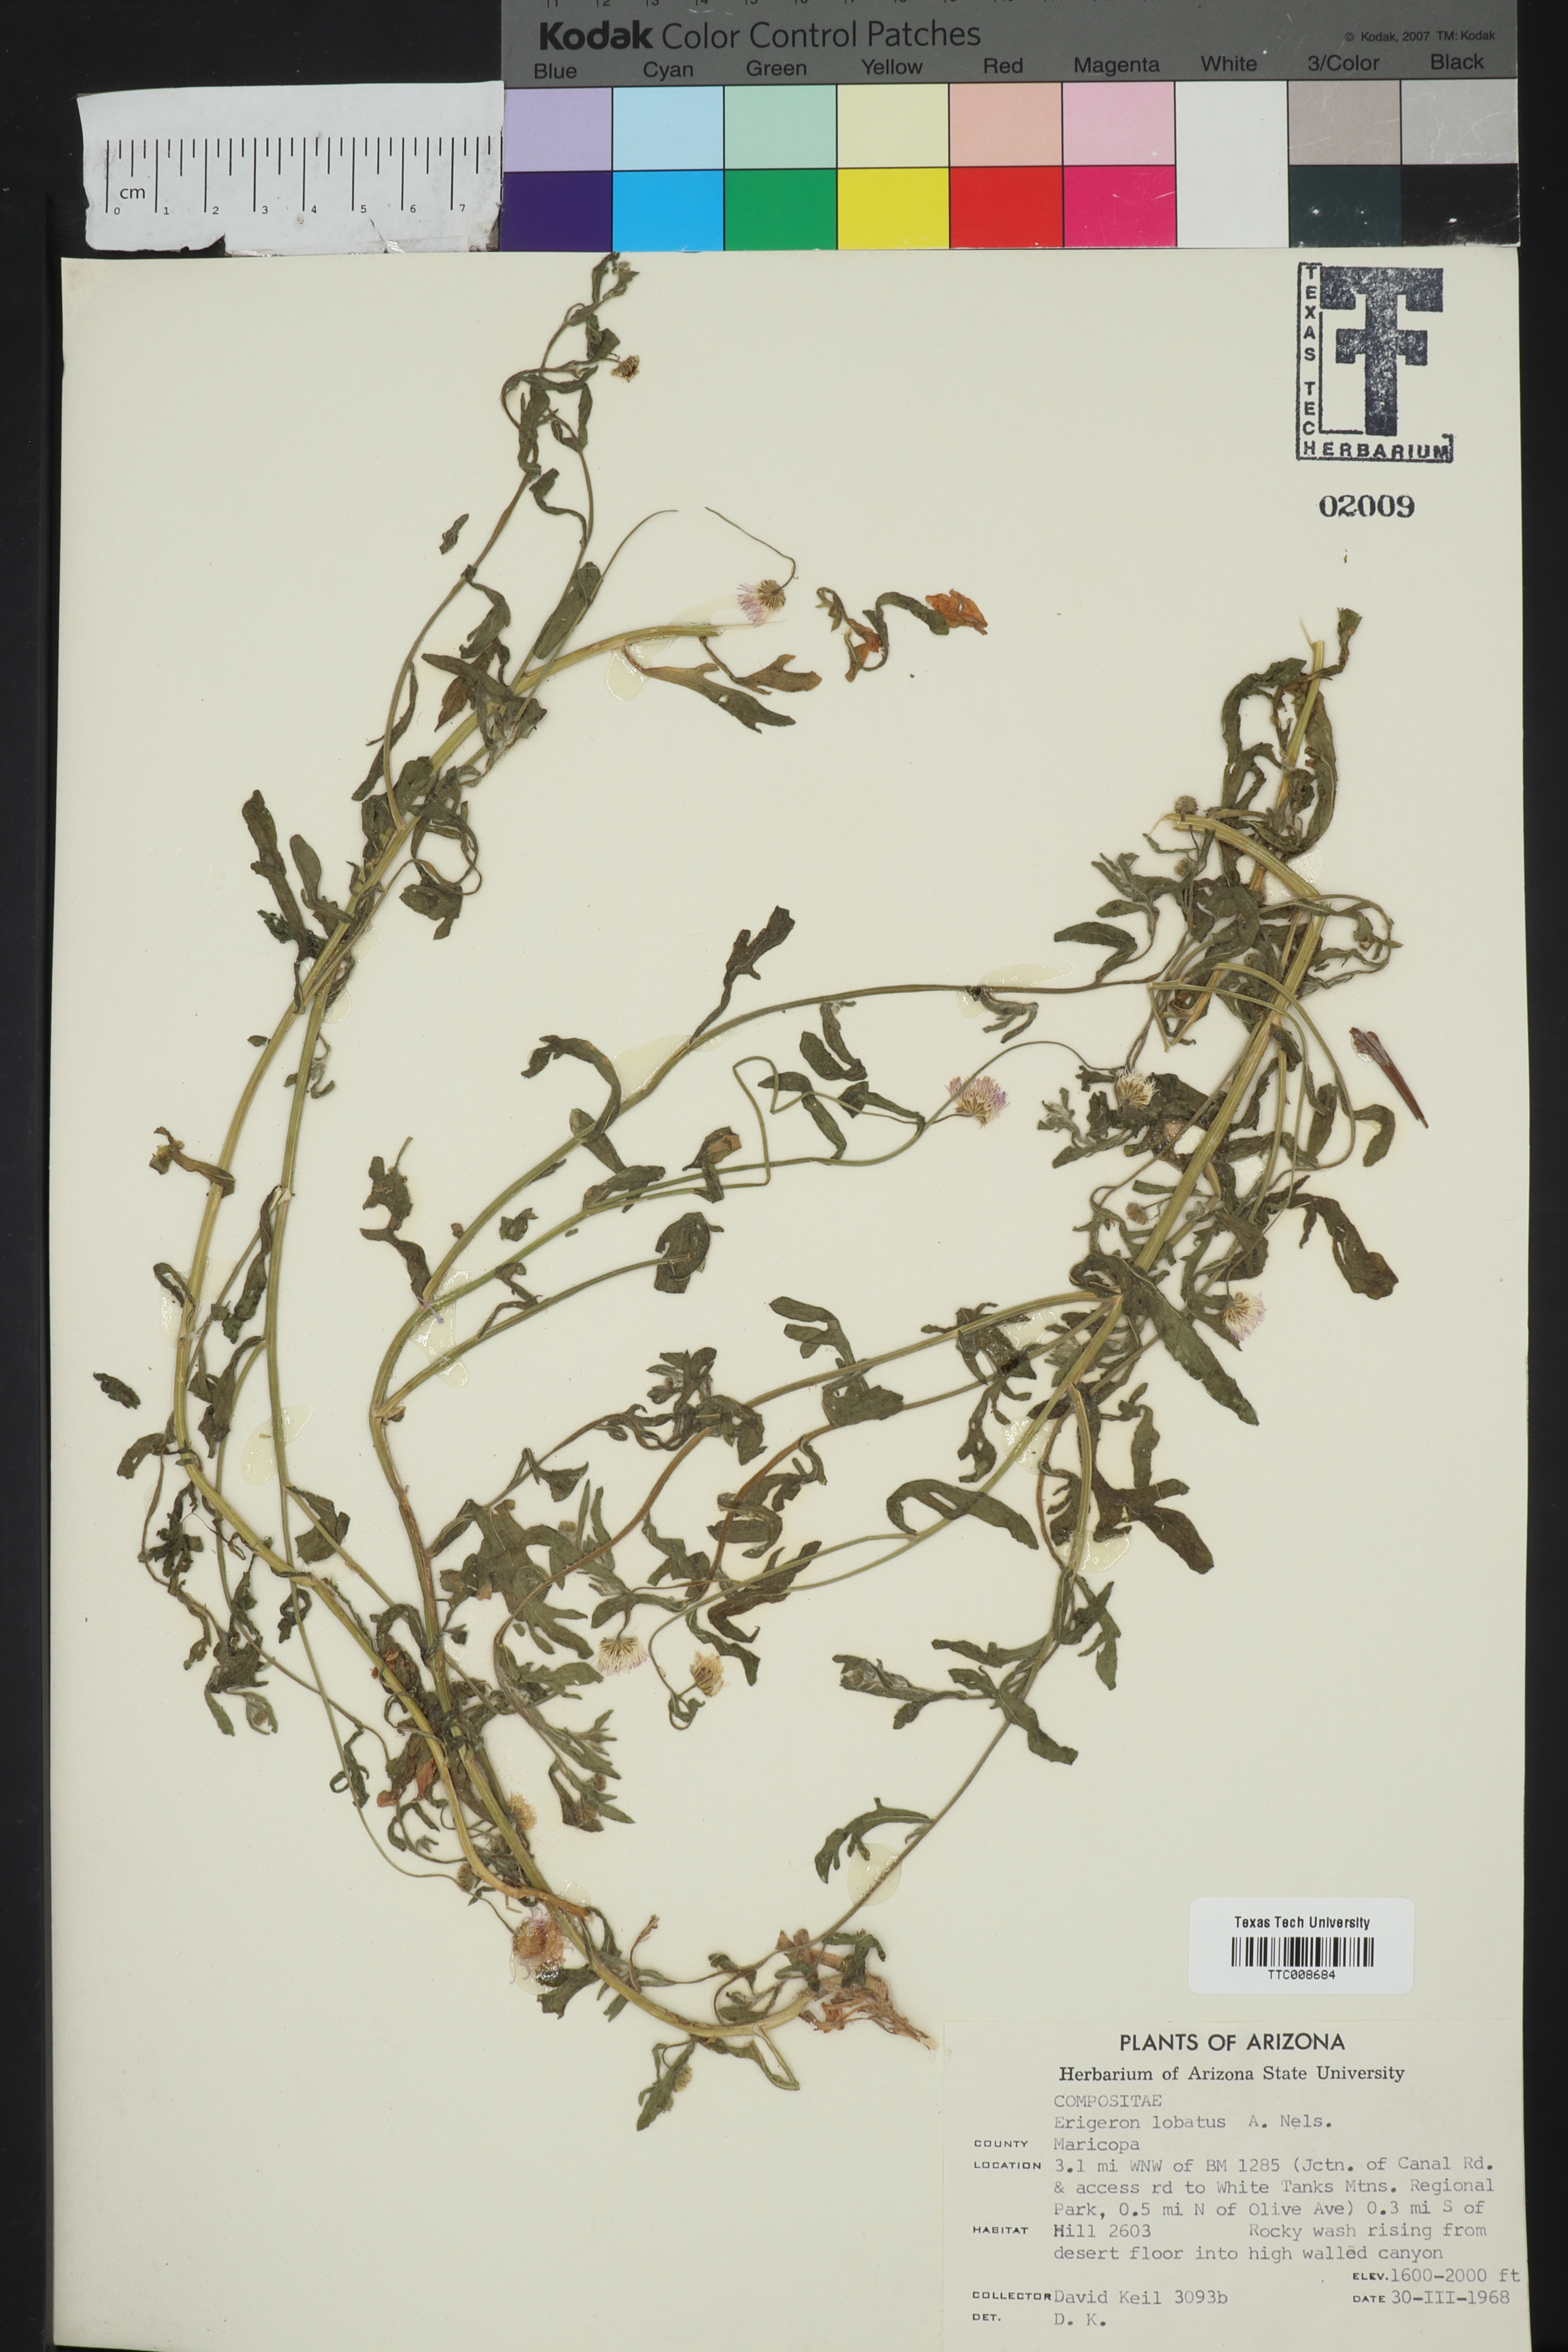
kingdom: Plantae
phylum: Tracheophyta
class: Magnoliopsida
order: Asterales
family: Asteraceae
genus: Erigeron
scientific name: Erigeron lobatus
